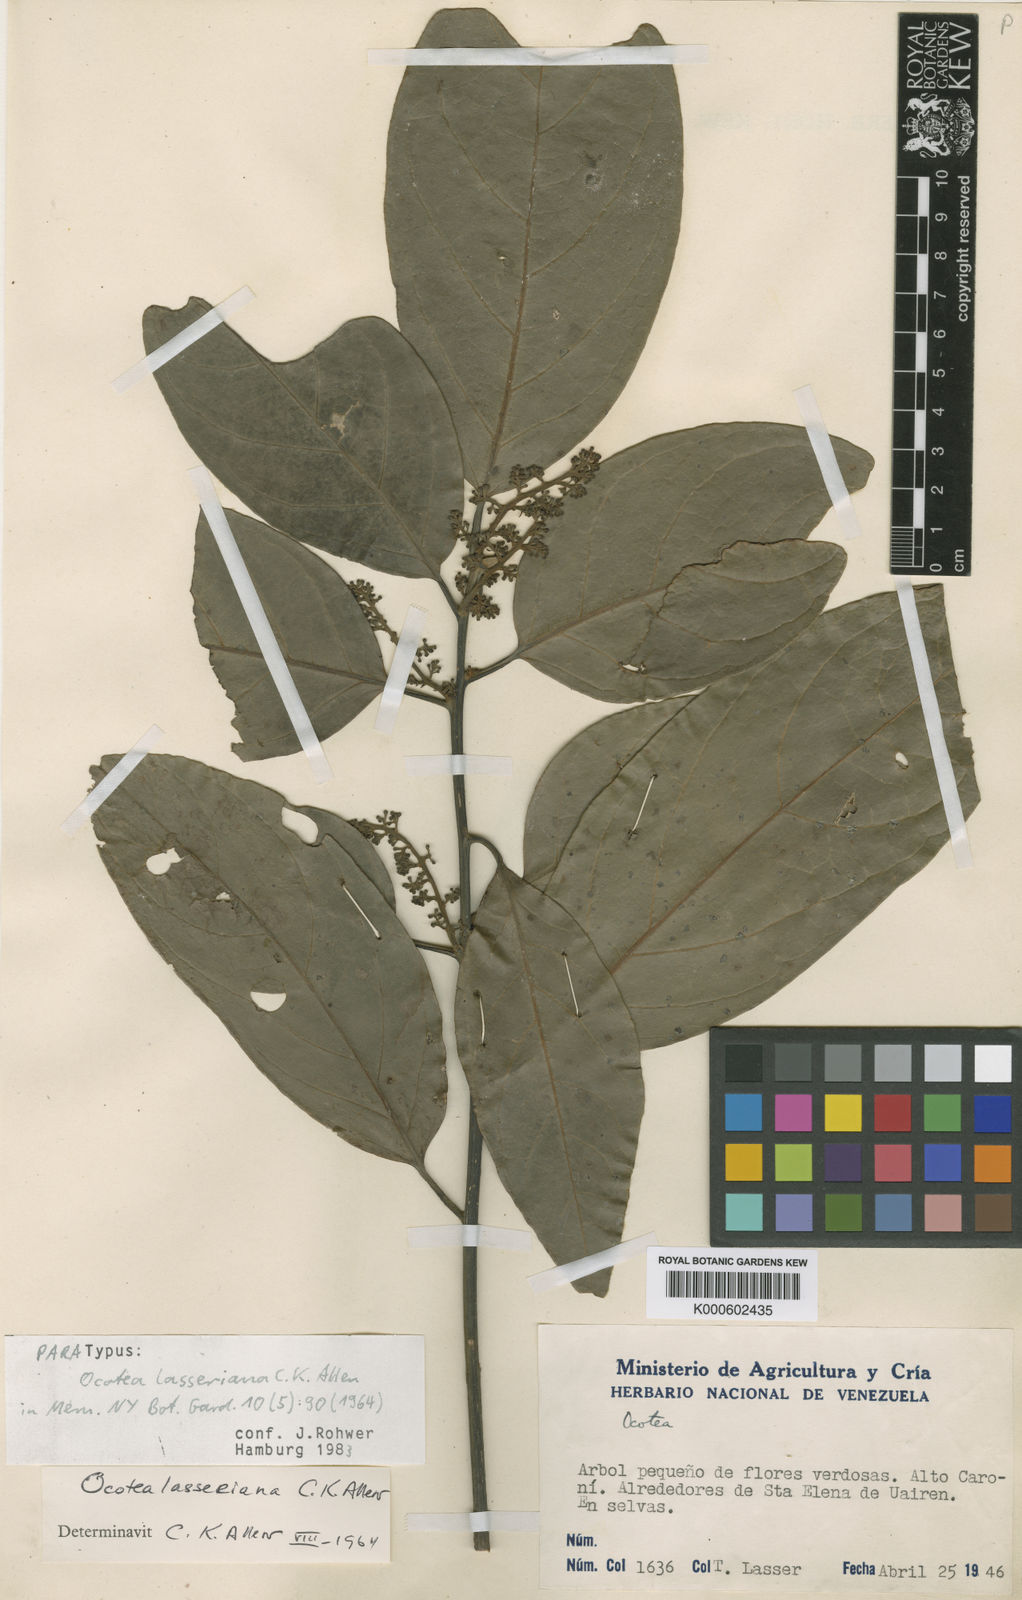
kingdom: Plantae
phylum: Tracheophyta
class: Magnoliopsida
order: Laurales
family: Lauraceae
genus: Ocotea
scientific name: Ocotea leucoxylon
